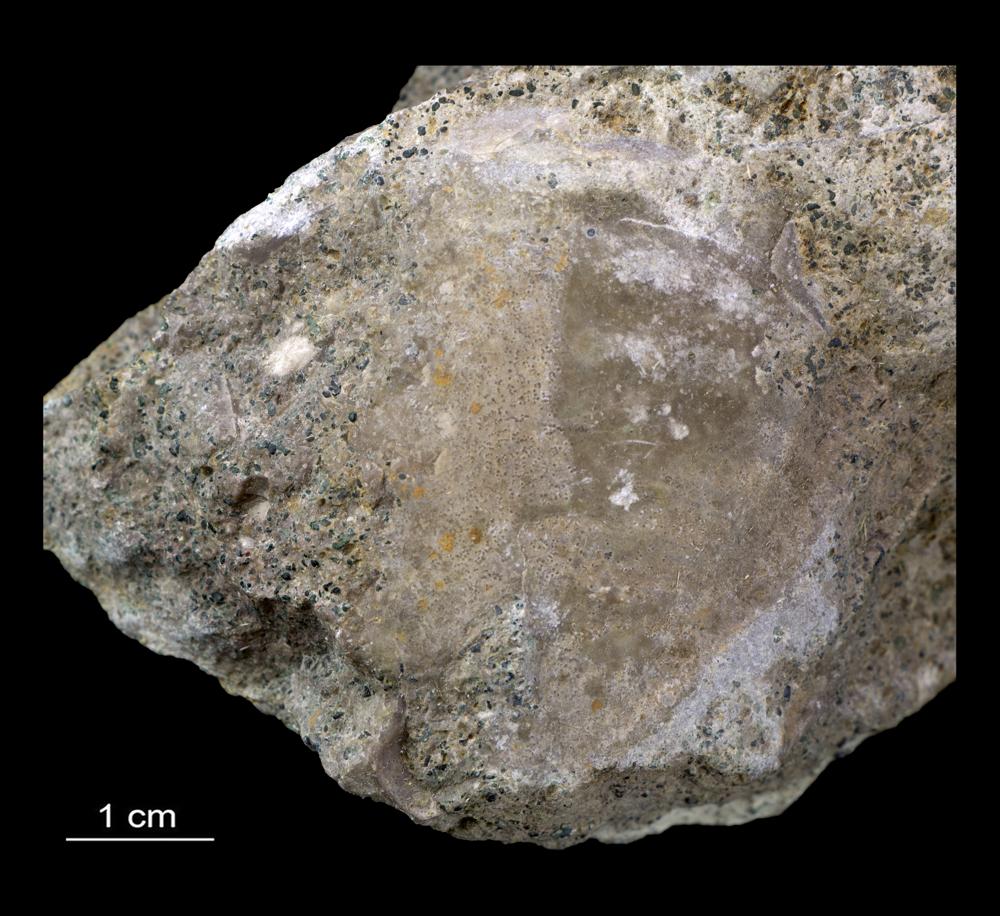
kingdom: Animalia
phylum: Arthropoda
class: Trilobita
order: Asaphida
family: Asaphidae
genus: Megistaspis
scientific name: Megistaspis
